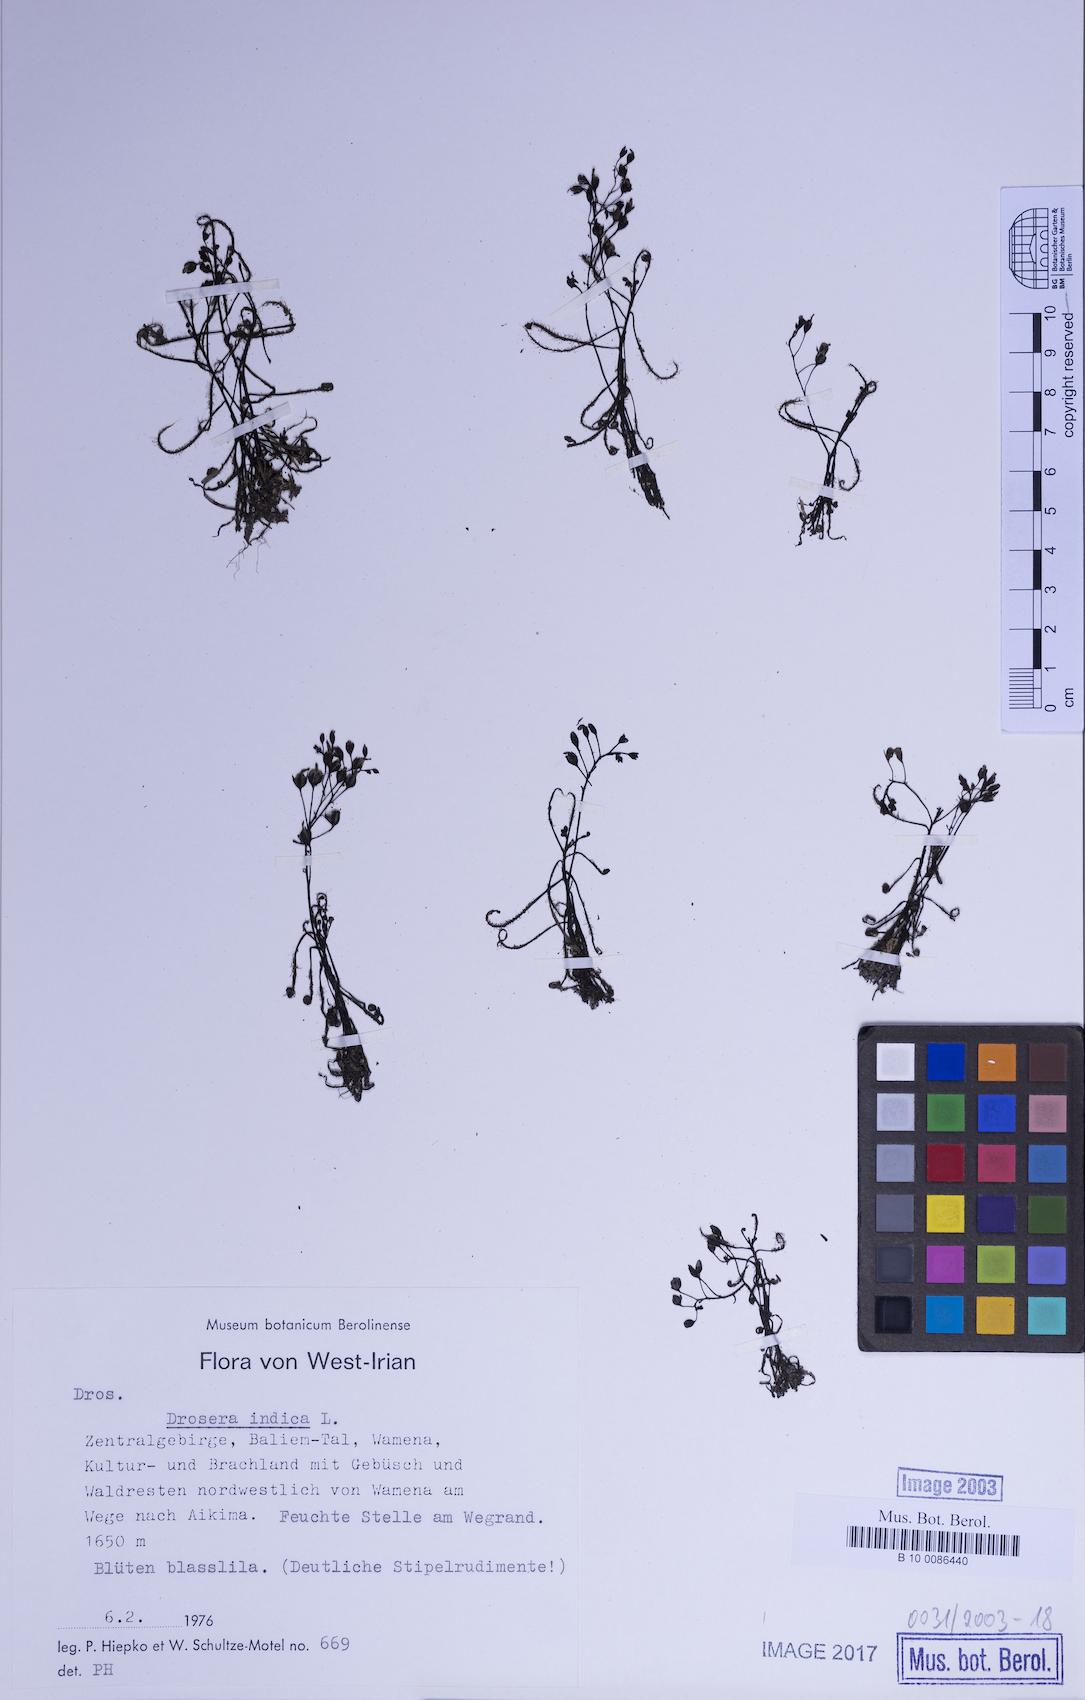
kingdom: Plantae
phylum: Tracheophyta
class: Magnoliopsida
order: Caryophyllales
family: Droseraceae
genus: Drosera
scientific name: Drosera indica
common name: Indian sundew
